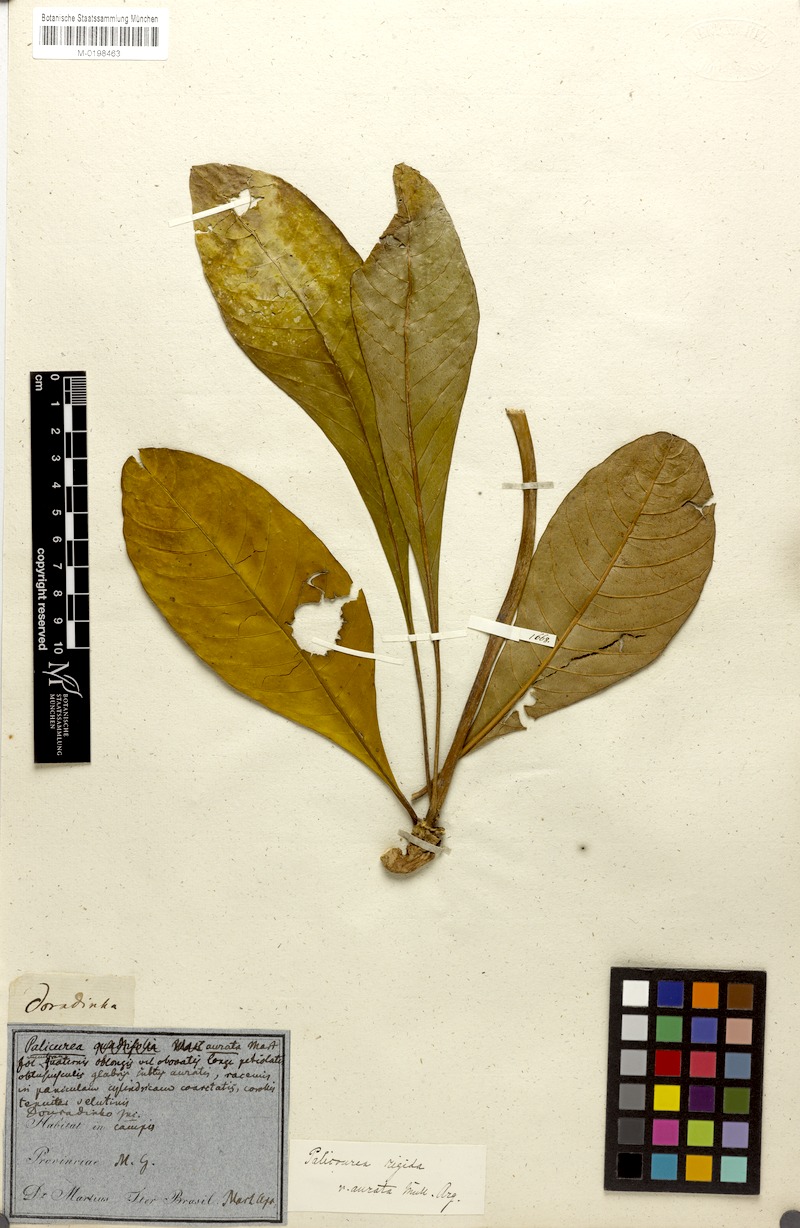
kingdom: Plantae
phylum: Tracheophyta
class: Magnoliopsida
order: Gentianales
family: Rubiaceae
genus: Palicourea
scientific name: Palicourea rigida
